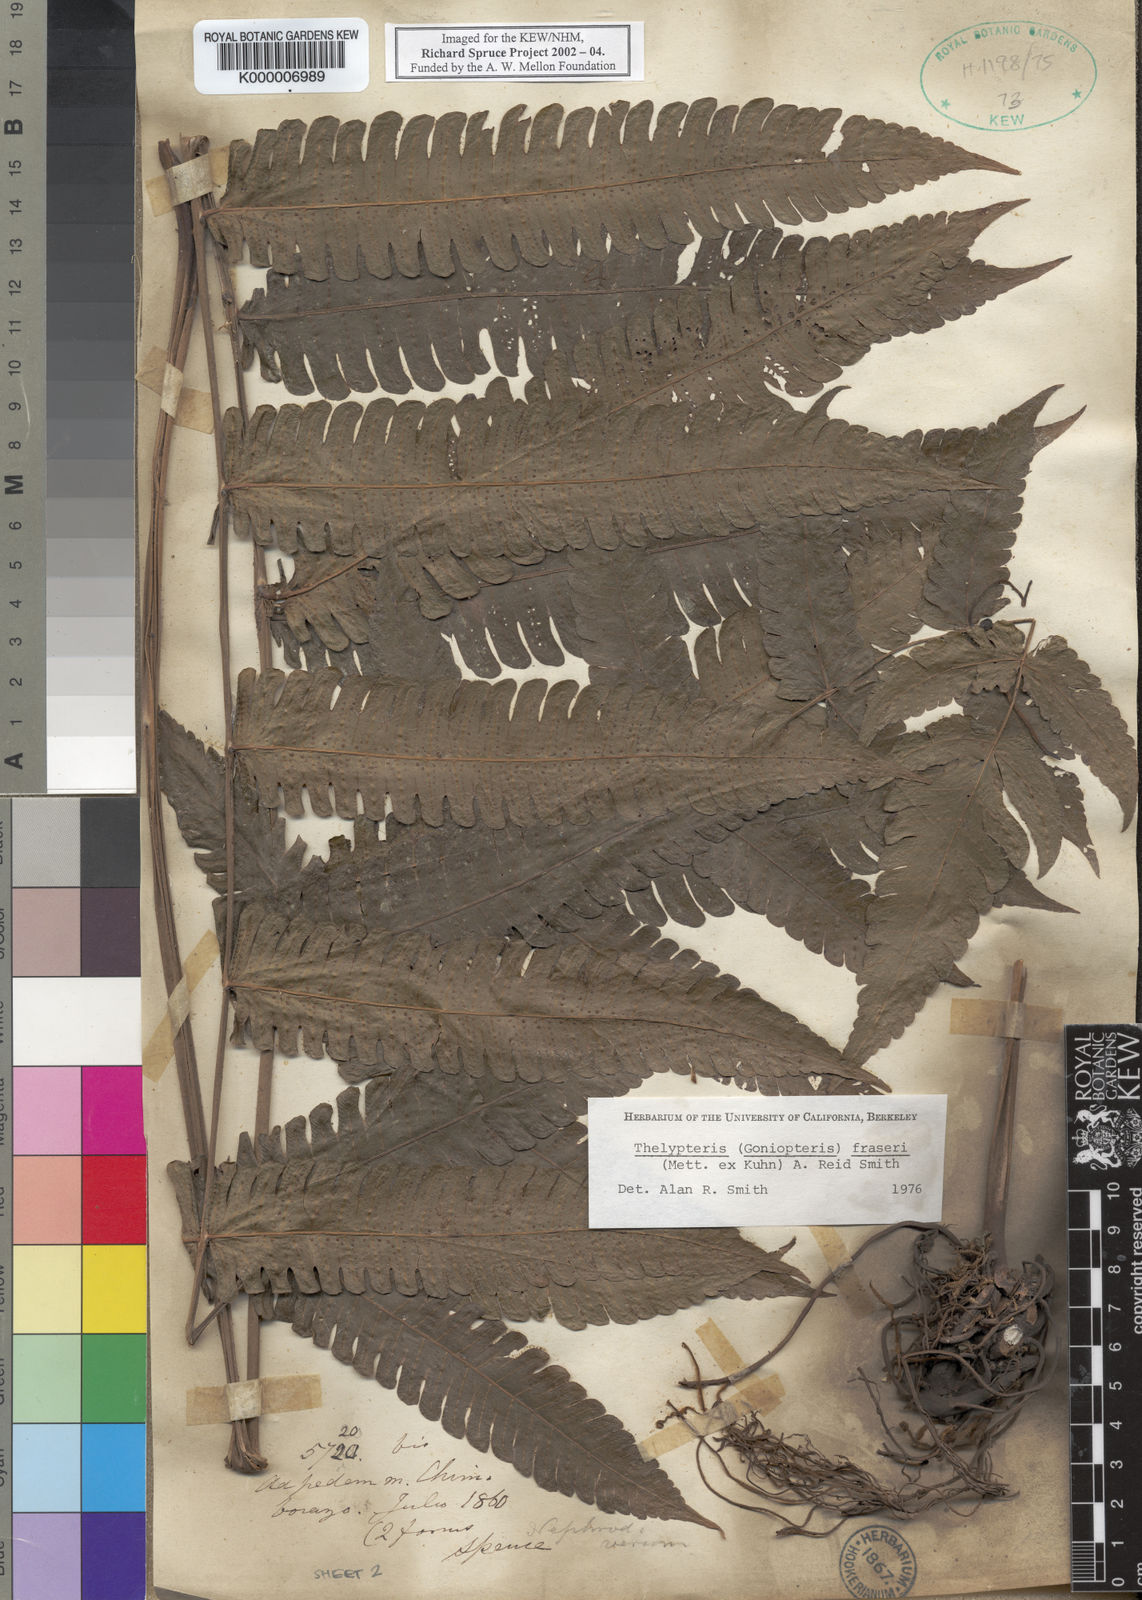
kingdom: Plantae
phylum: Tracheophyta
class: Polypodiopsida
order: Polypodiales
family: Thelypteridaceae
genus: Goniopteris
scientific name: Goniopteris fraseri
